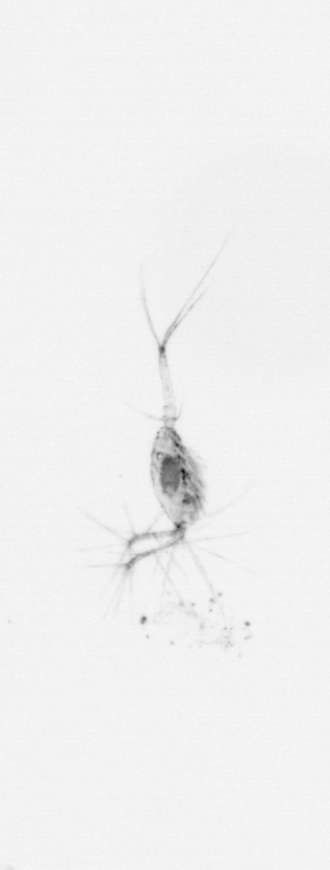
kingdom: Animalia
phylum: Arthropoda
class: Copepoda
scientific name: Copepoda
